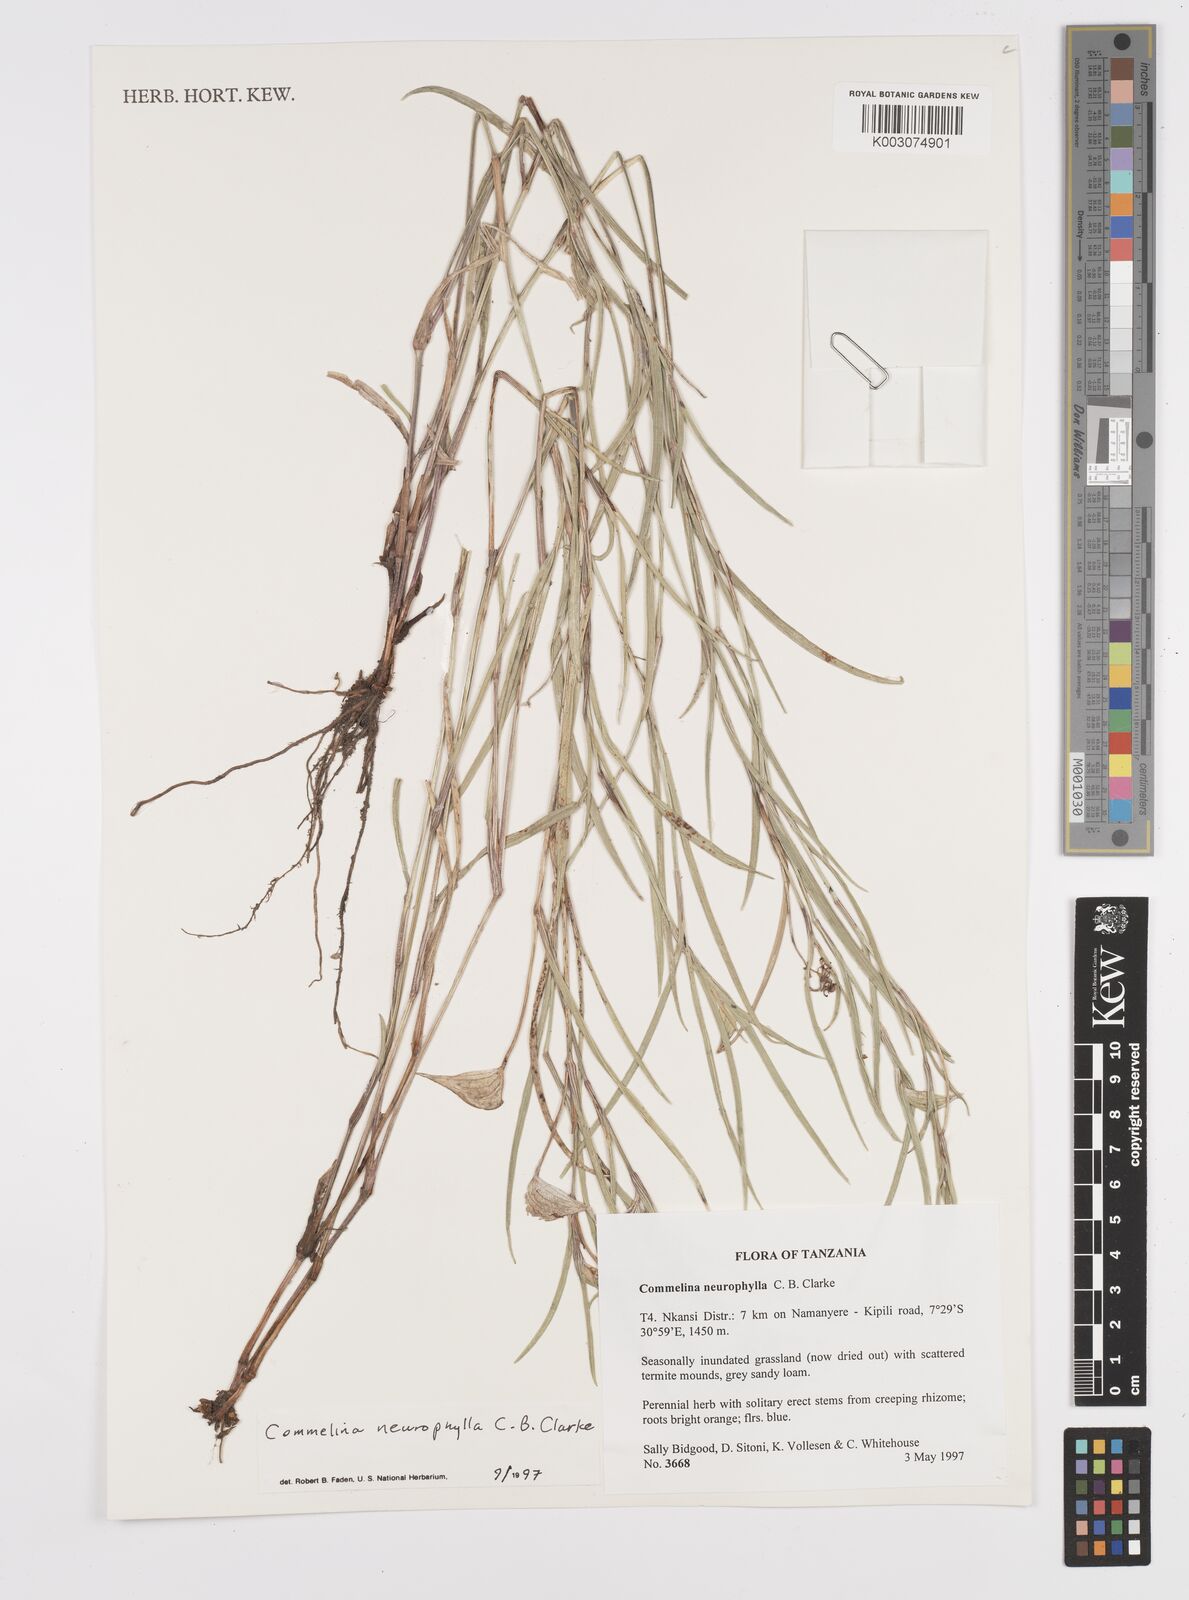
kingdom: Plantae
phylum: Tracheophyta
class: Liliopsida
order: Commelinales
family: Commelinaceae
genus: Commelina
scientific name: Commelina neurophylla
